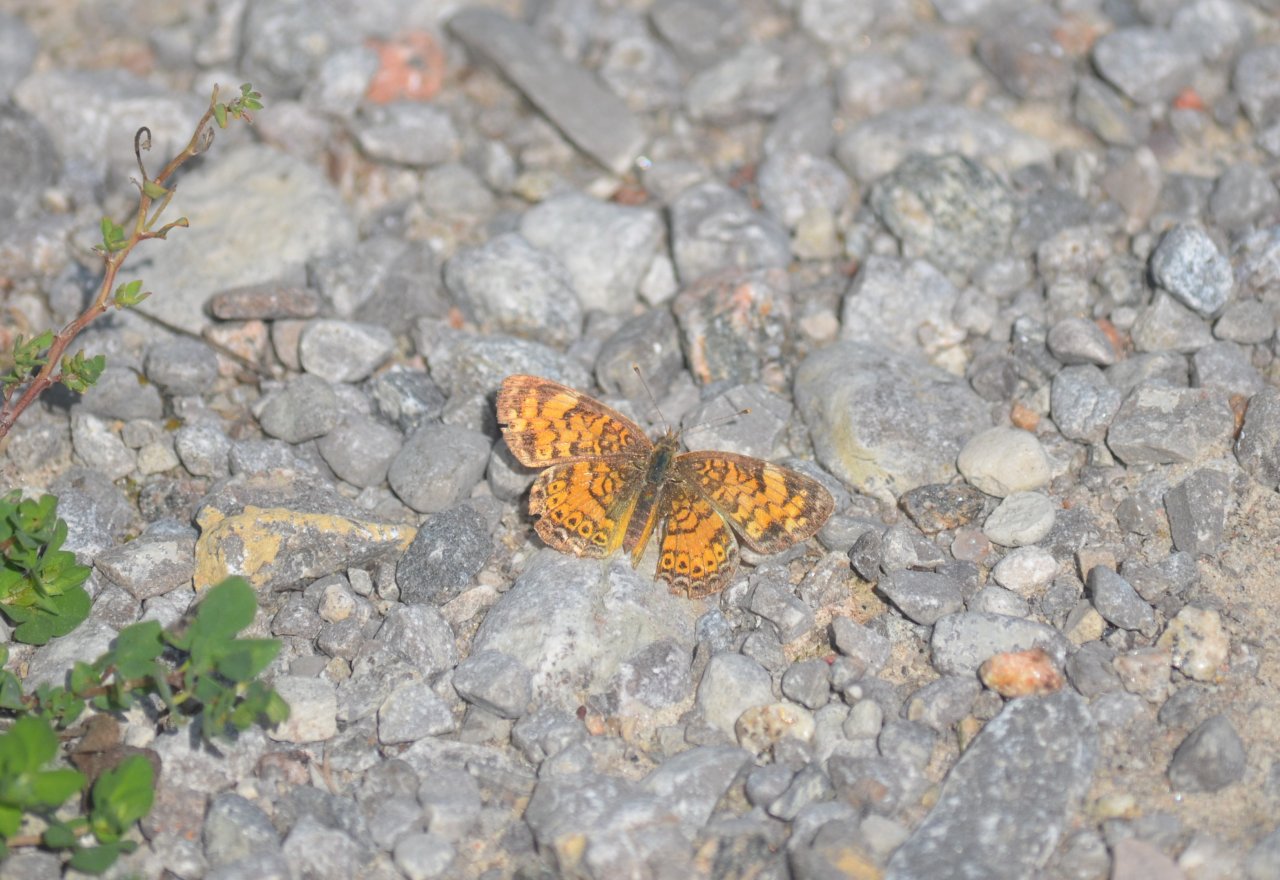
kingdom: Animalia
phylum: Arthropoda
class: Insecta
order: Lepidoptera
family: Nymphalidae
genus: Phyciodes
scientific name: Phyciodes tharos
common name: Northern Crescent
